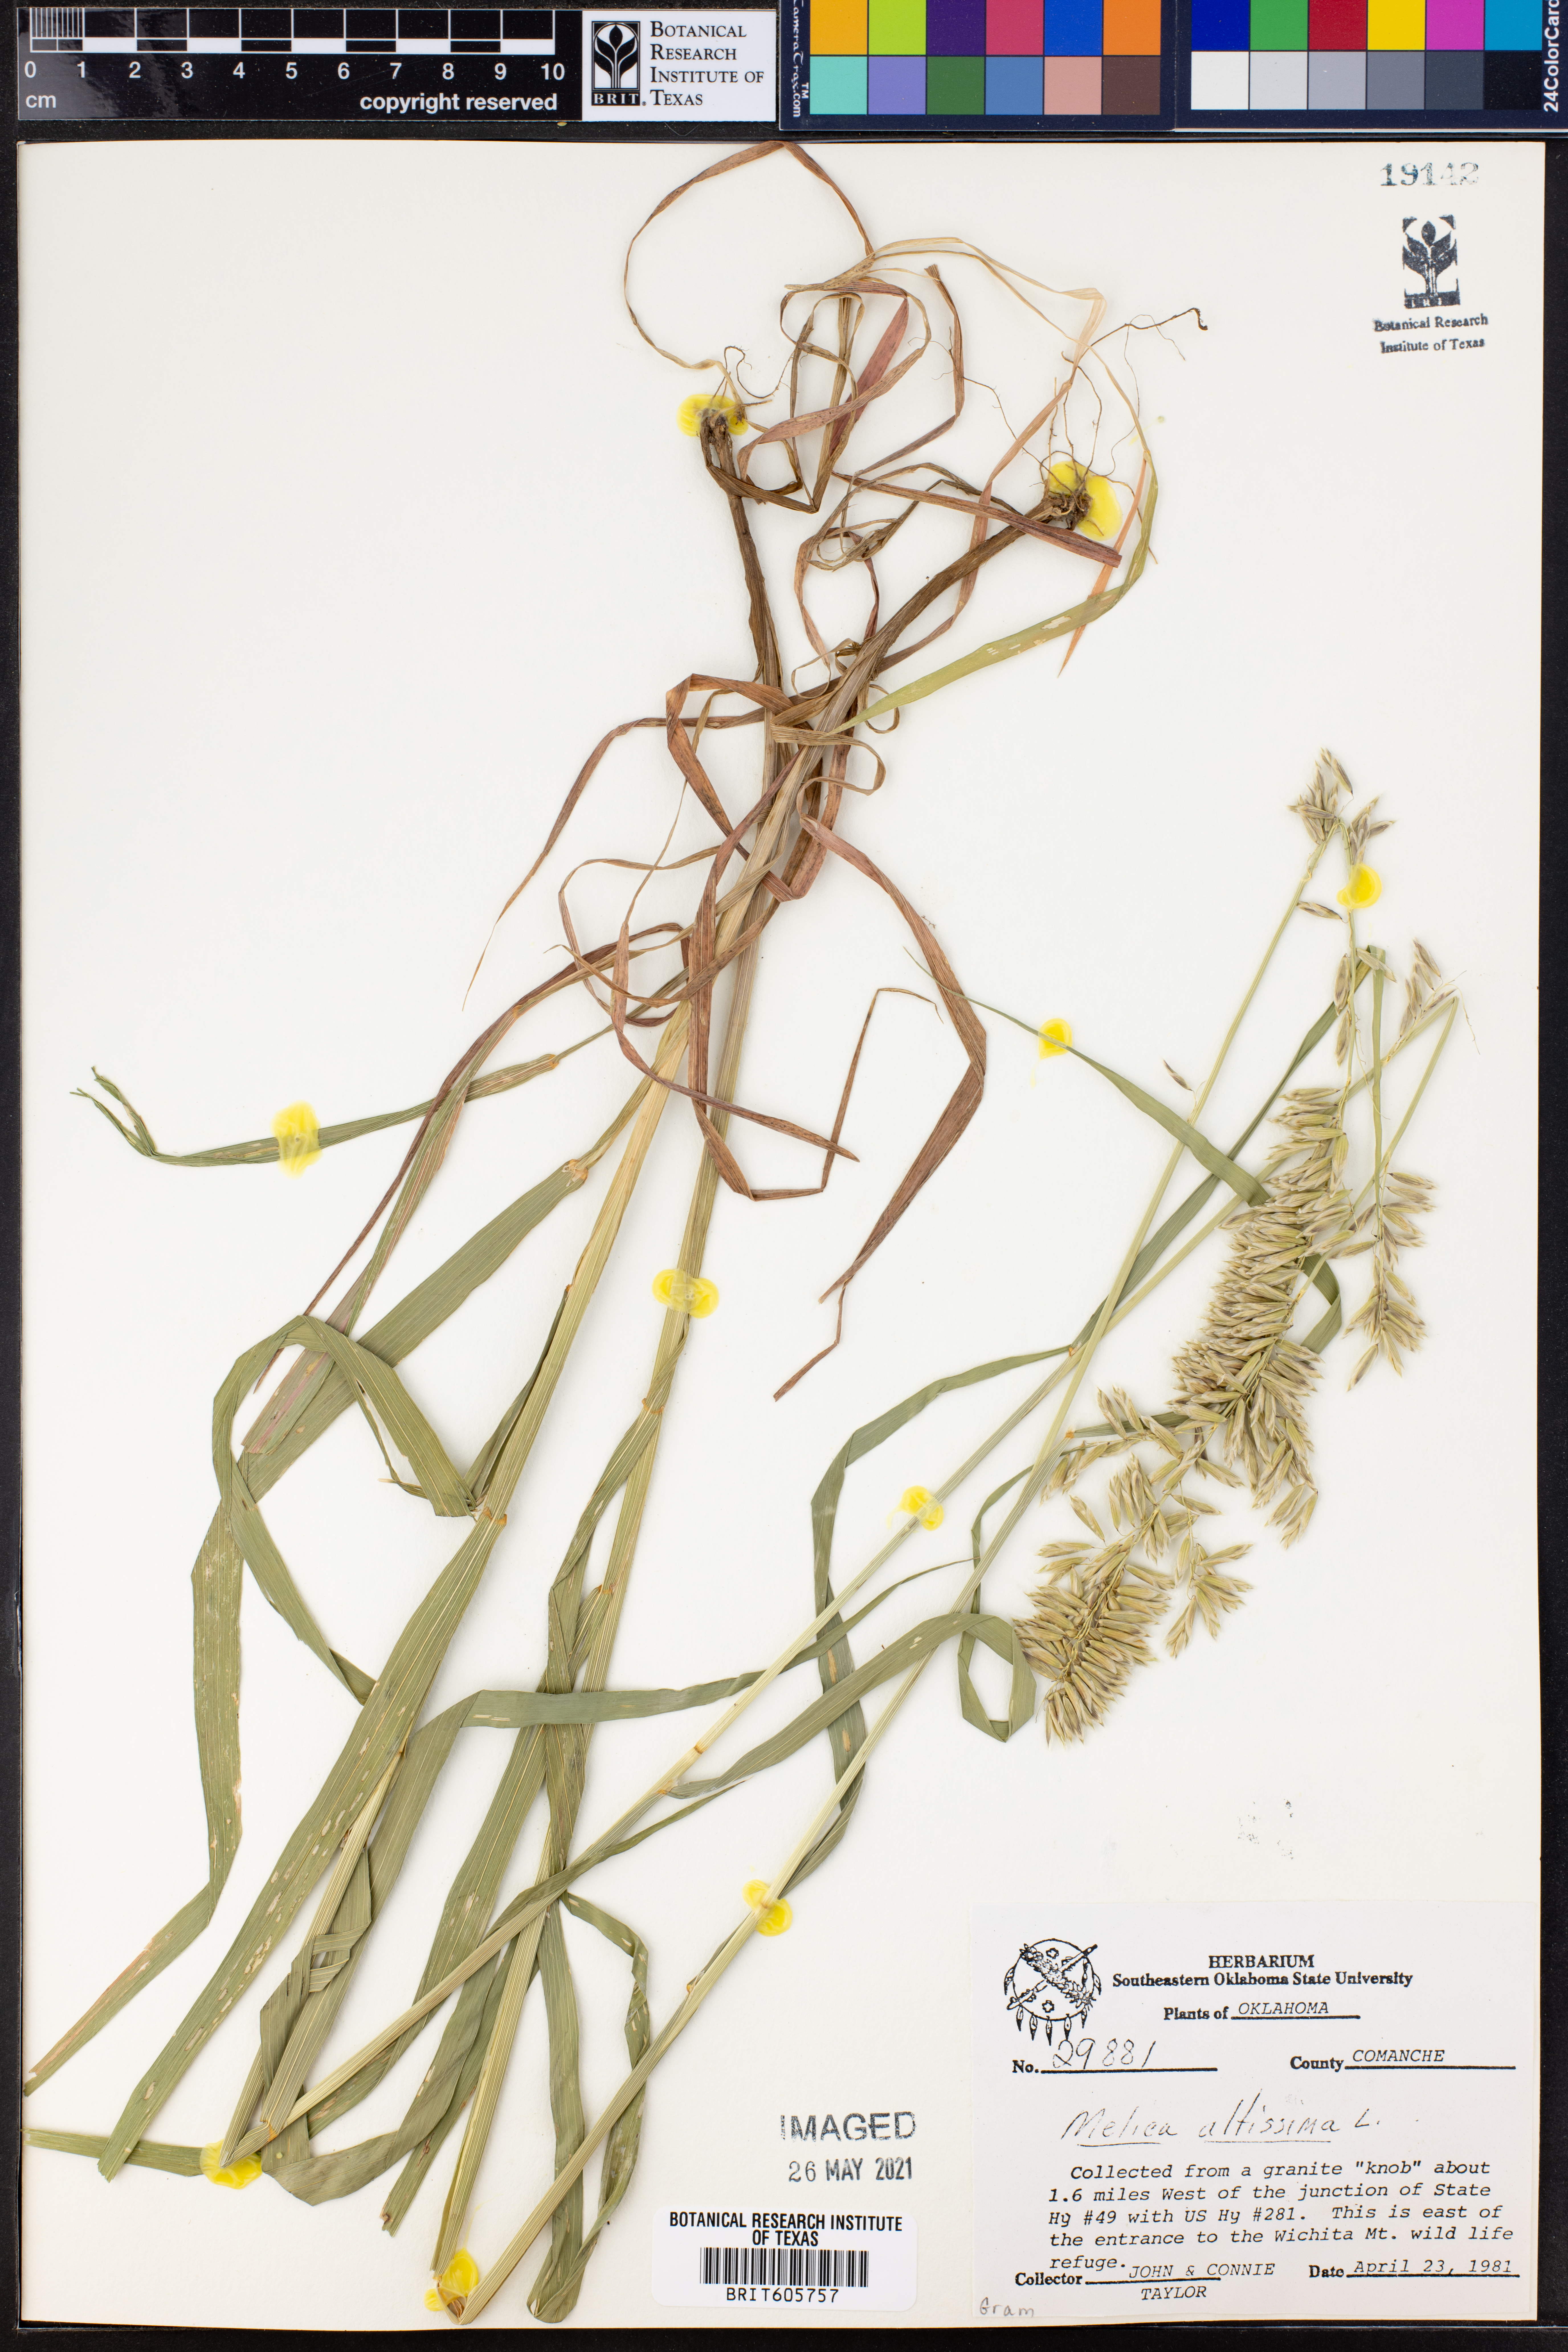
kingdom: Plantae
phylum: Tracheophyta
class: Liliopsida
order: Poales
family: Poaceae
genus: Melica
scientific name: Melica altissima
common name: Siberian melicgrass
